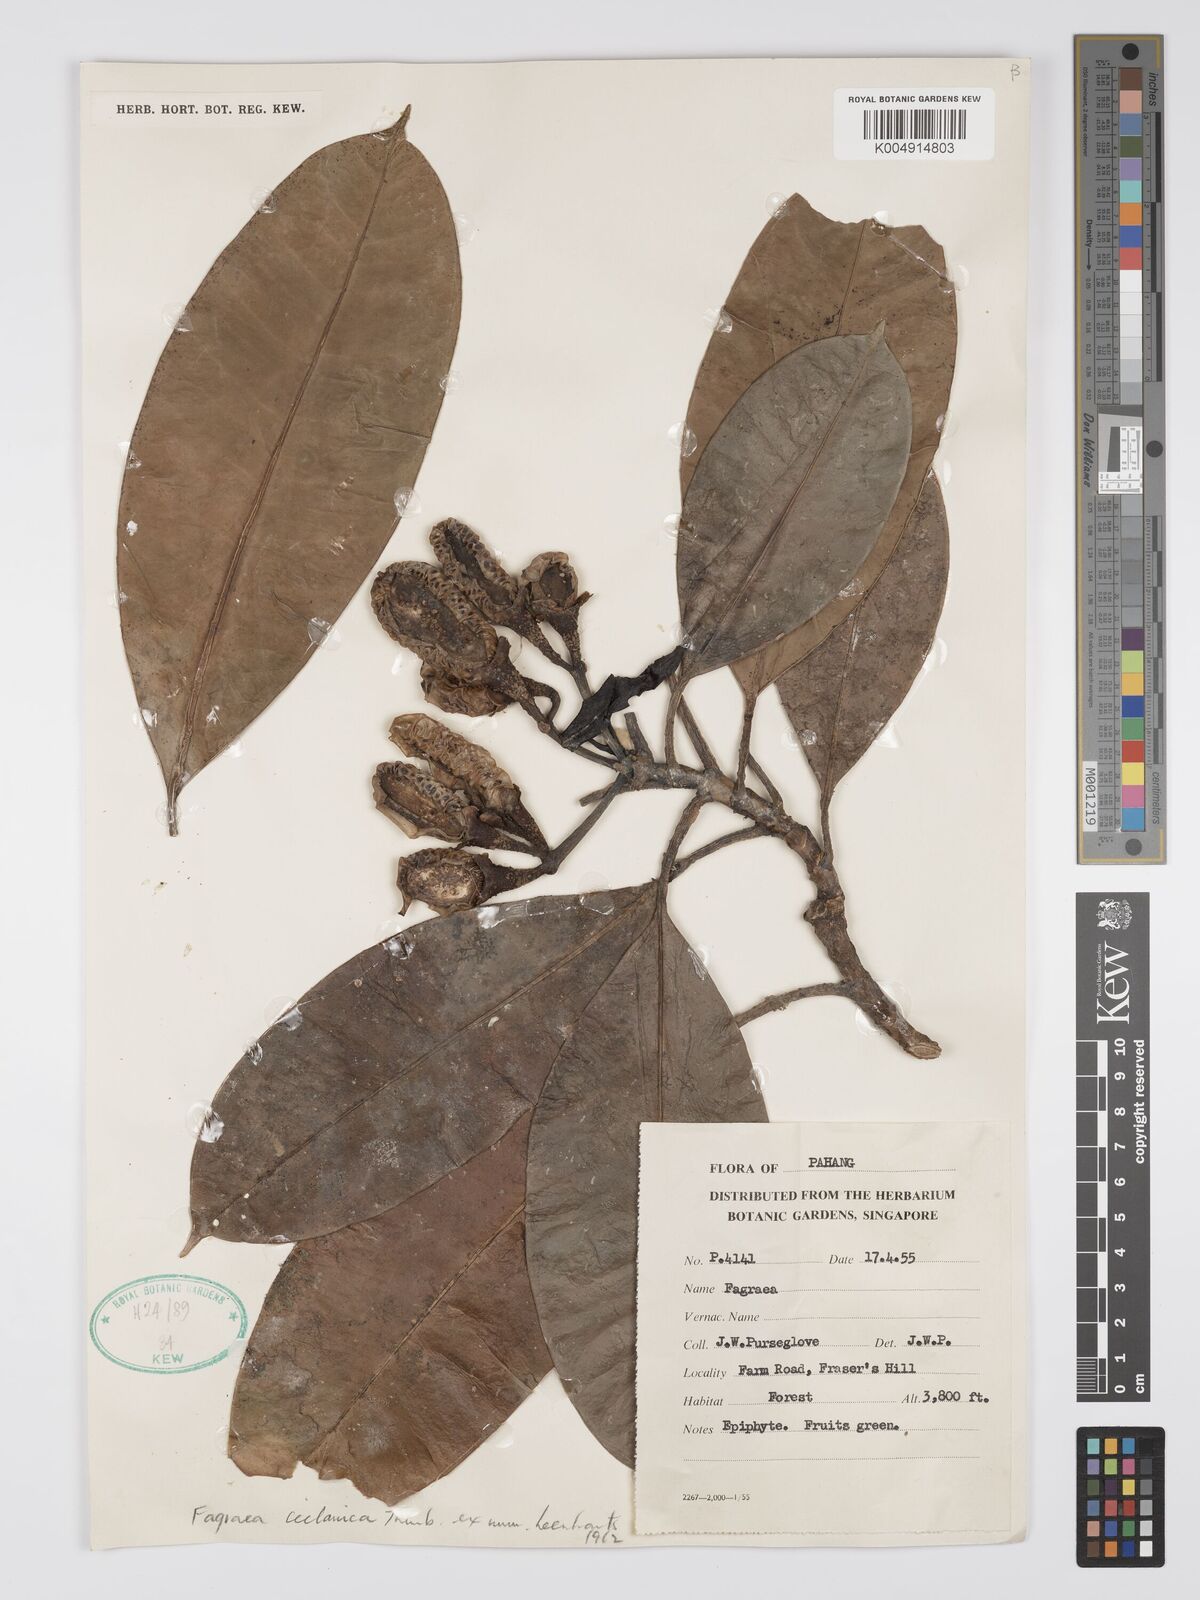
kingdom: Plantae
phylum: Tracheophyta
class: Magnoliopsida
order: Gentianales
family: Gentianaceae
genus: Fagraea
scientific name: Fagraea oblonga
